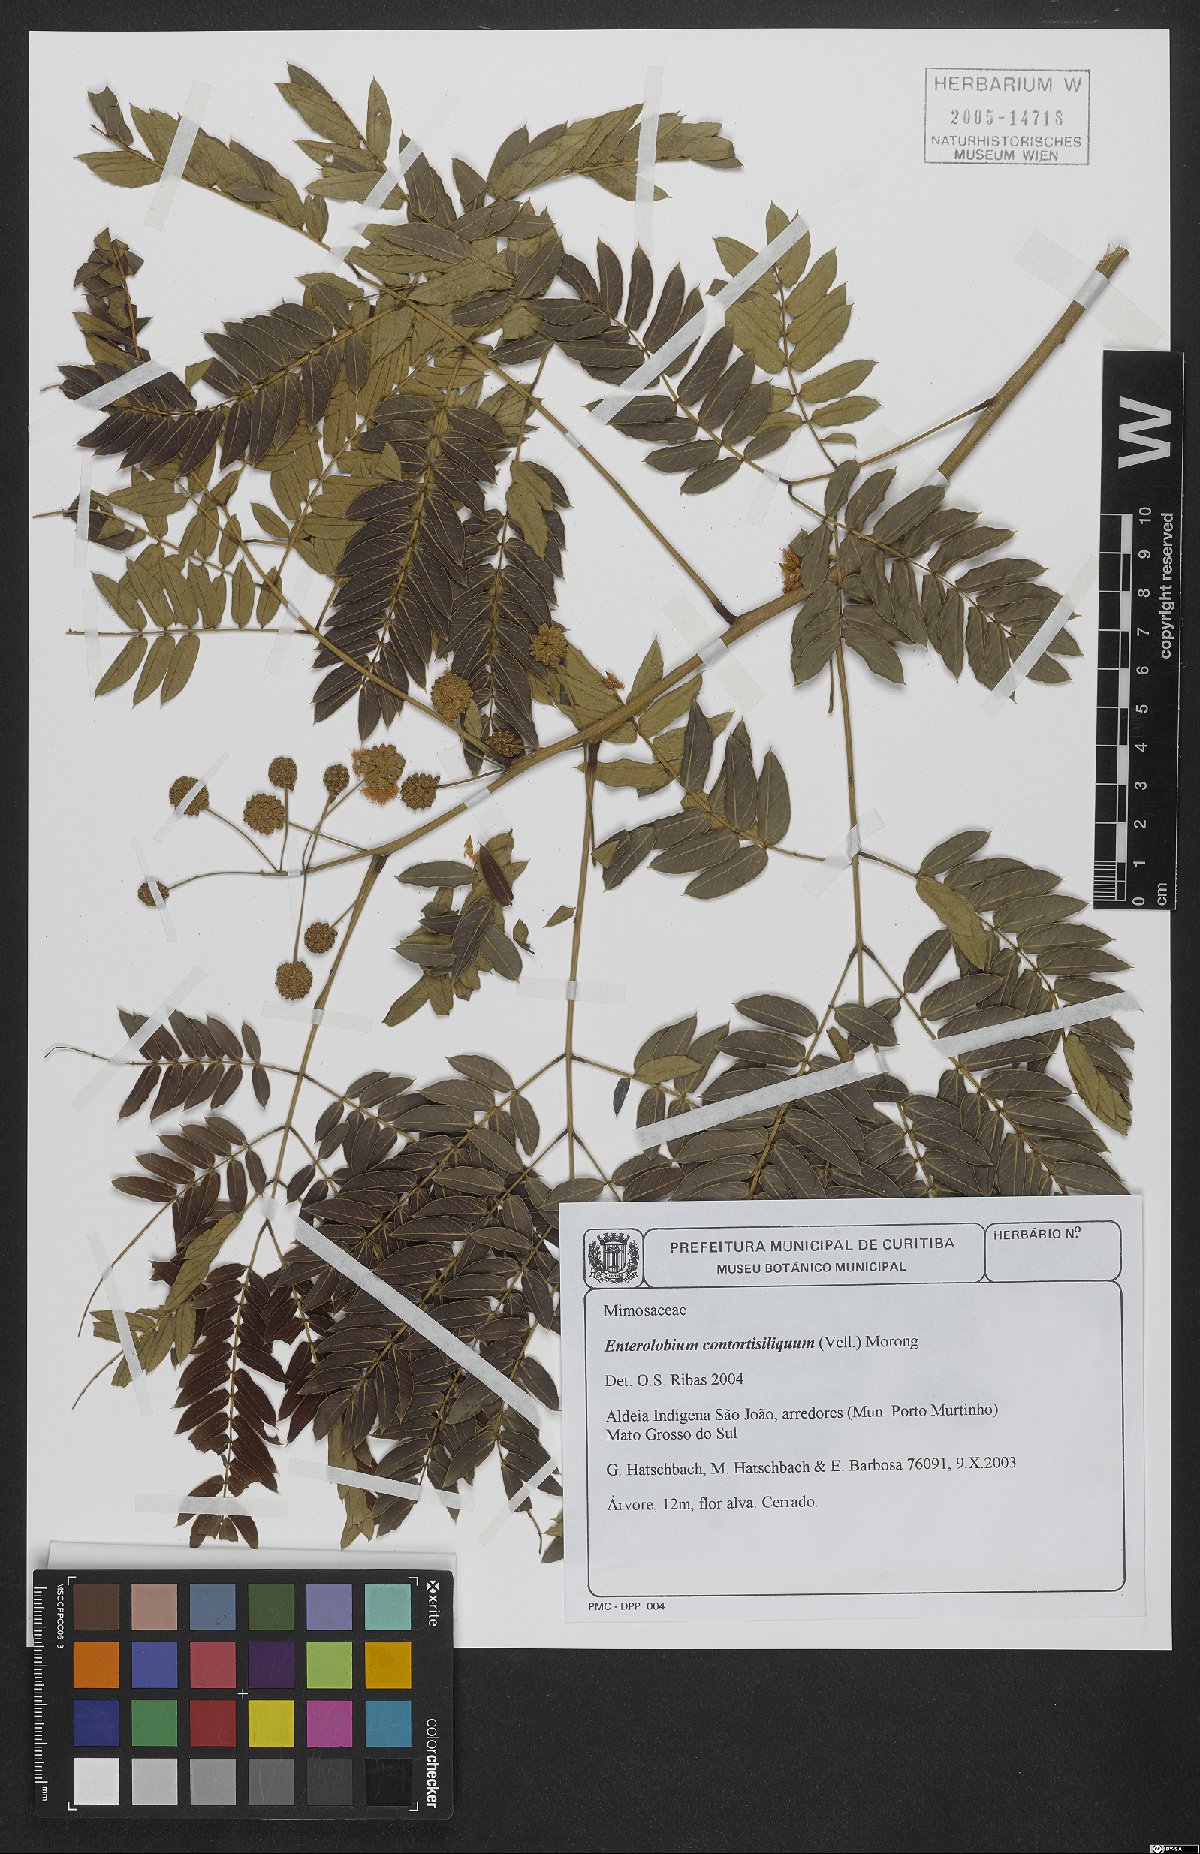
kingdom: Plantae
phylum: Tracheophyta
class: Magnoliopsida
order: Fabales
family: Fabaceae
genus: Enterolobium
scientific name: Enterolobium contortisiliquum
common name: Pacara earpod tree
